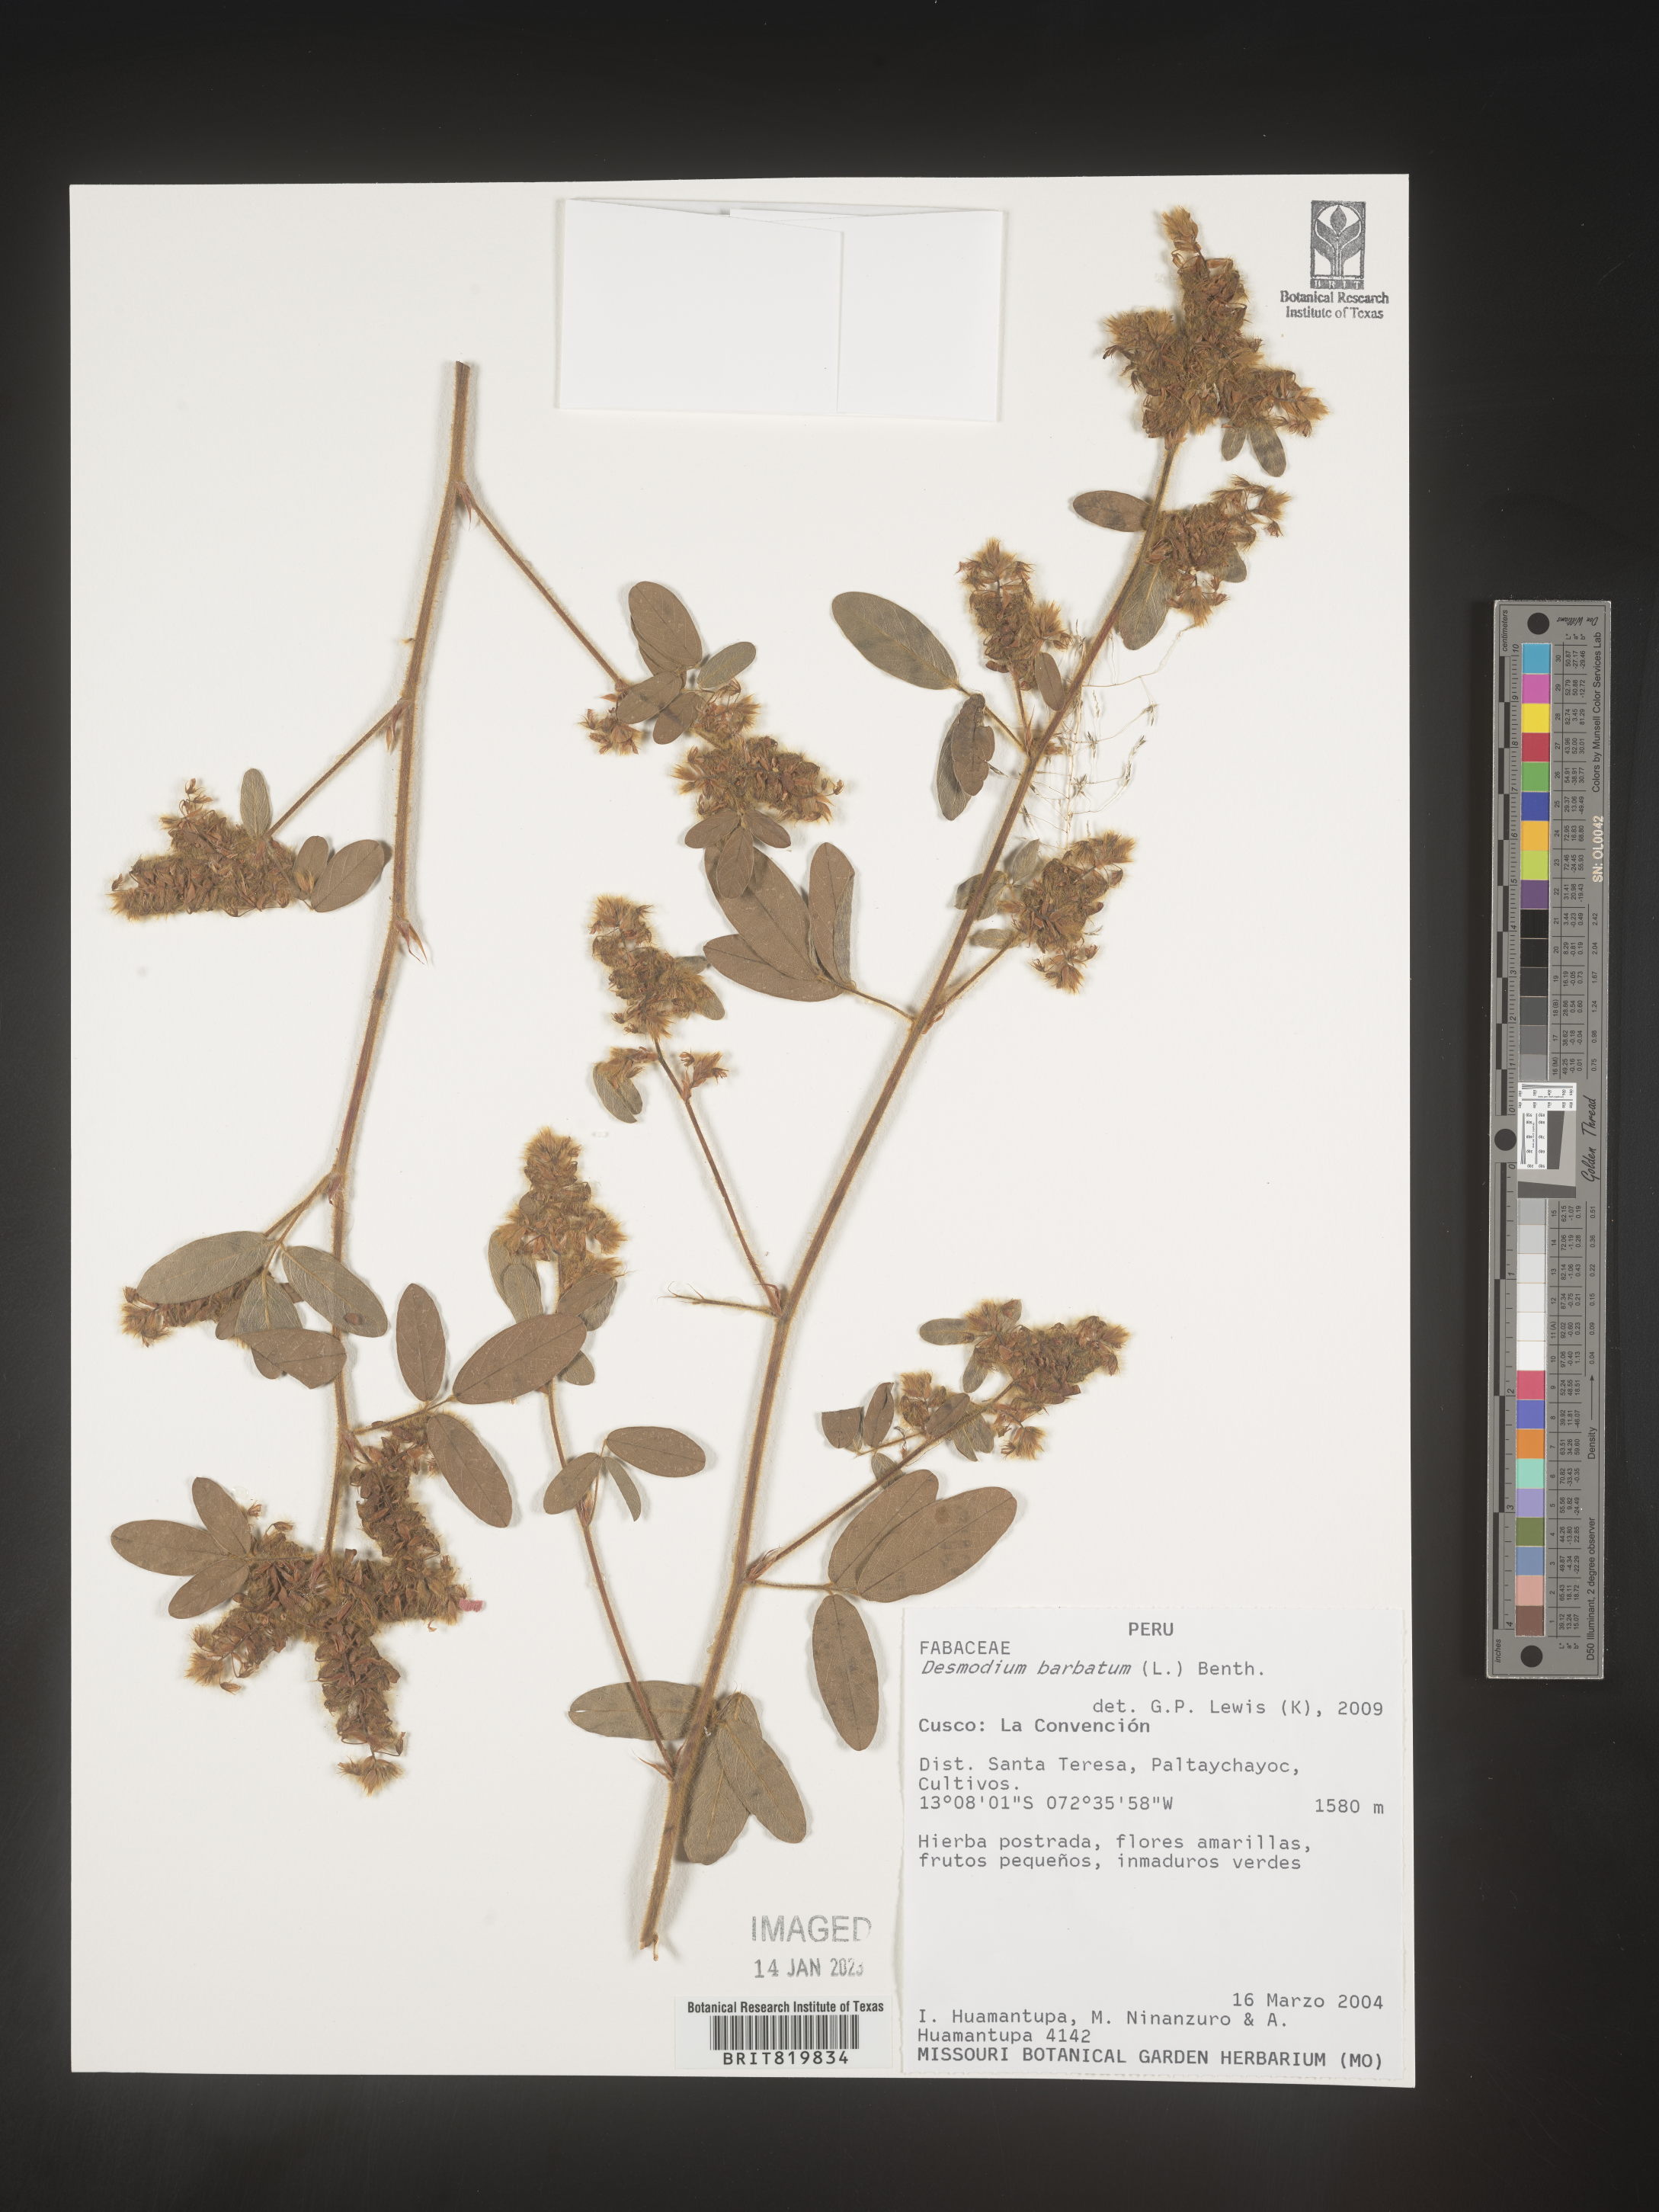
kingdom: Plantae
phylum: Tracheophyta
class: Magnoliopsida
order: Fabales
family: Fabaceae
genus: Desmodium
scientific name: Desmodium
